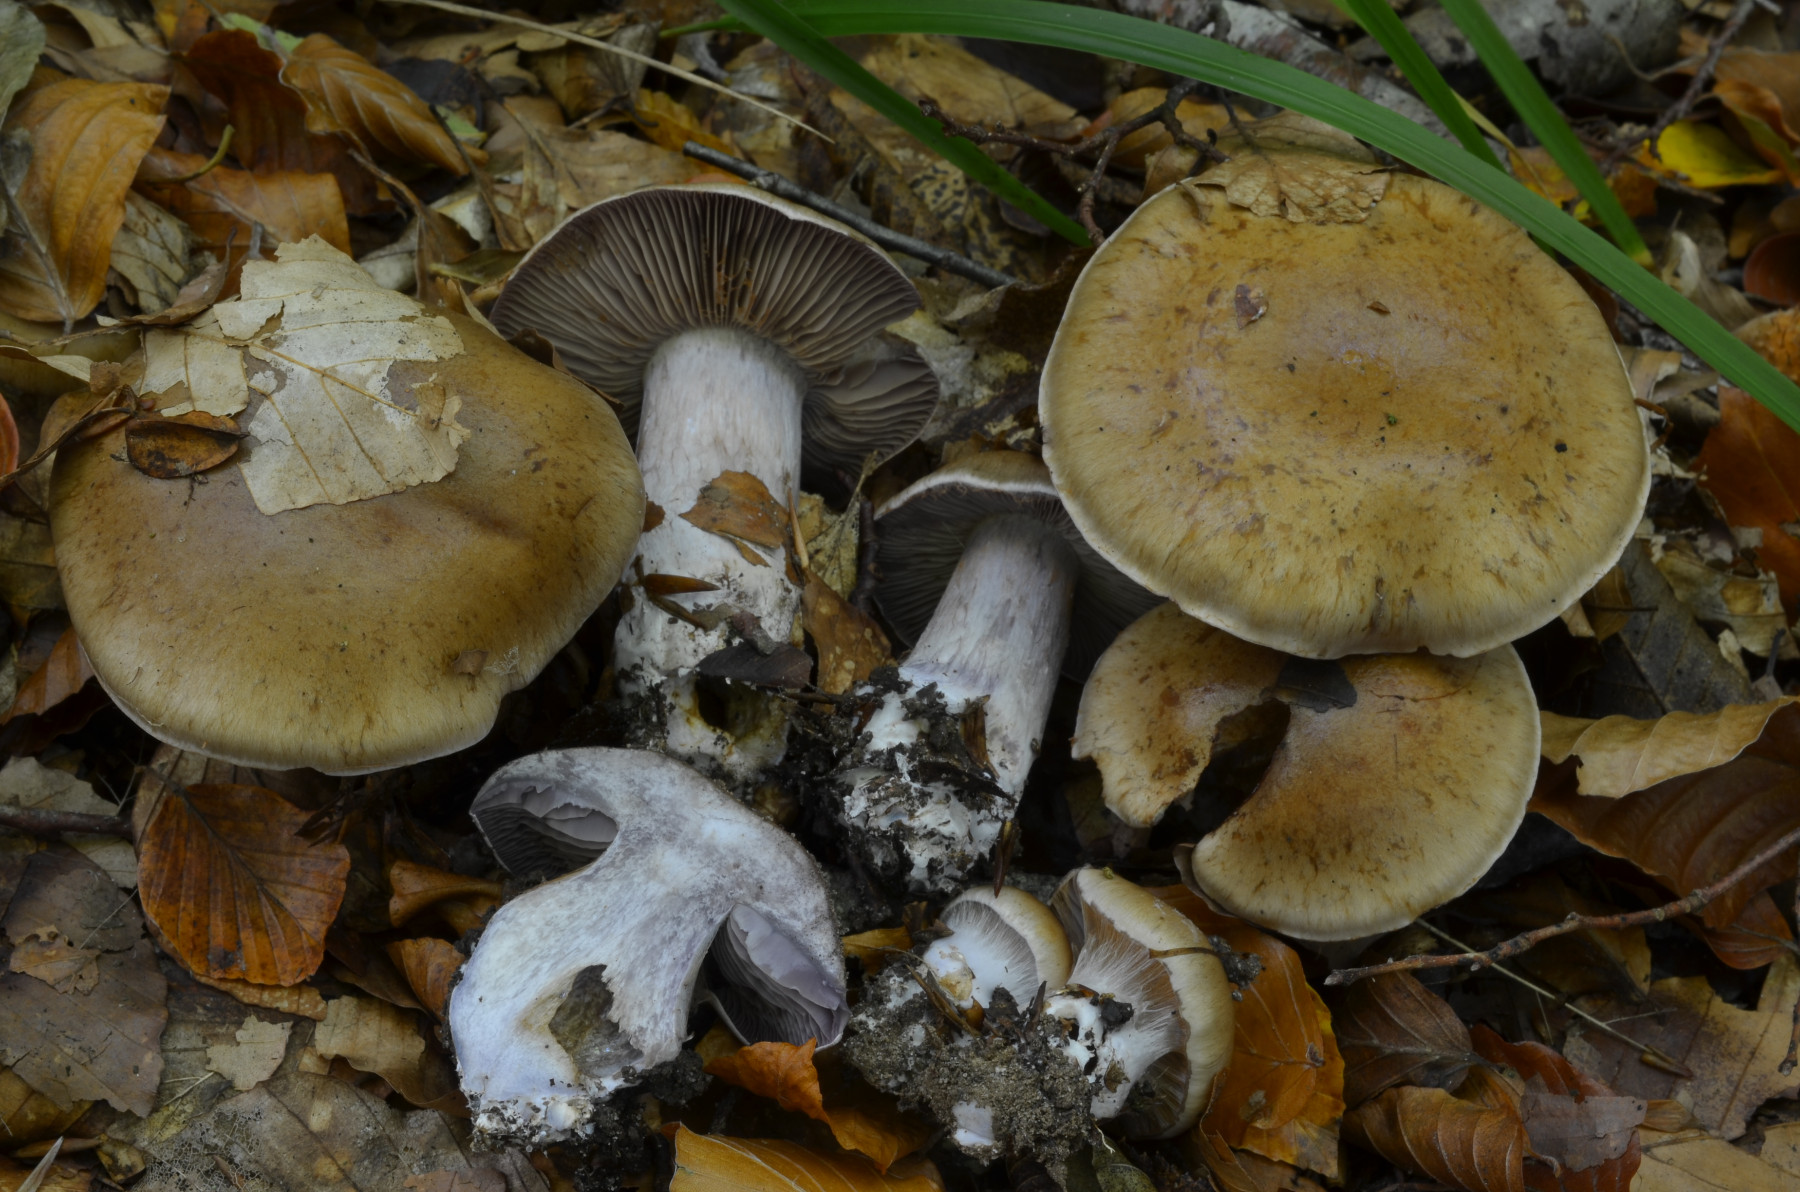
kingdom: Fungi
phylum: Basidiomycota
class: Agaricomycetes
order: Agaricales
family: Cortinariaceae
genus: Thaxterogaster
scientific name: Thaxterogaster subpurpurascens
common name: mørkblånende slørhat
